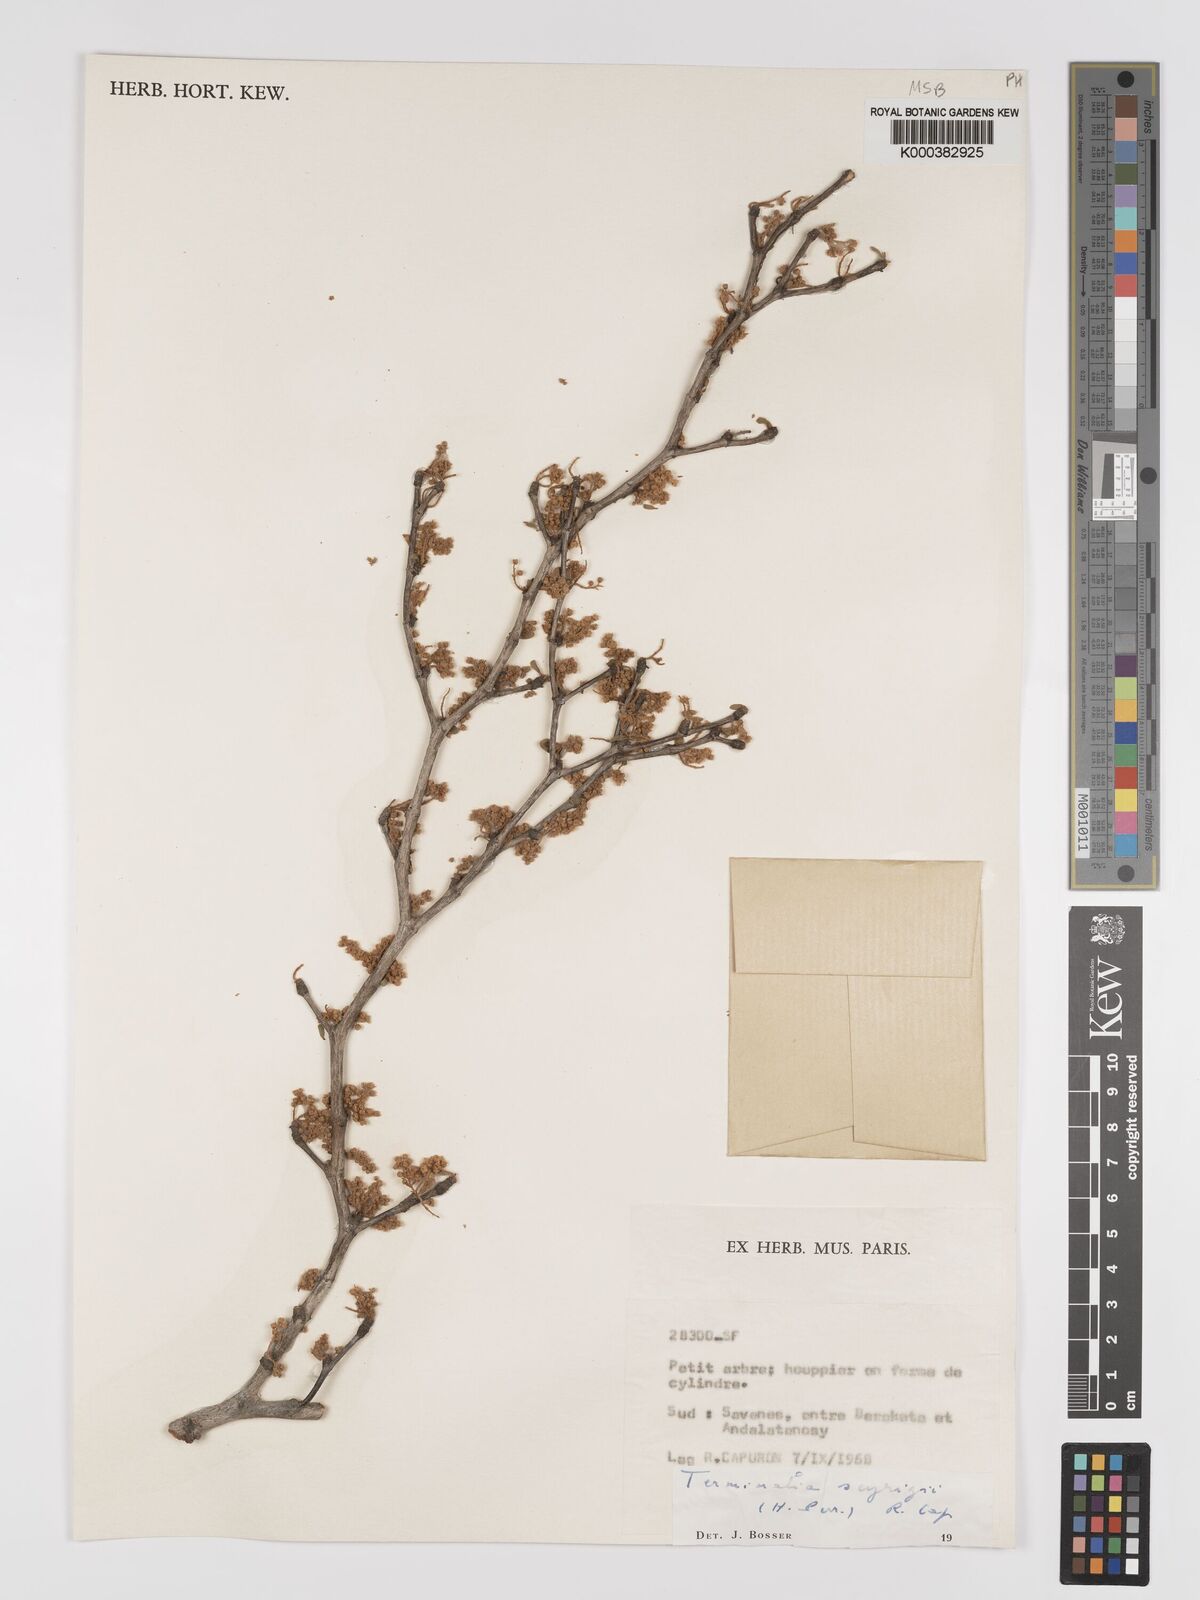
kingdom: Plantae
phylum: Tracheophyta
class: Magnoliopsida
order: Myrtales
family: Combretaceae
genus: Terminalia
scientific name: Terminalia seyrigii
